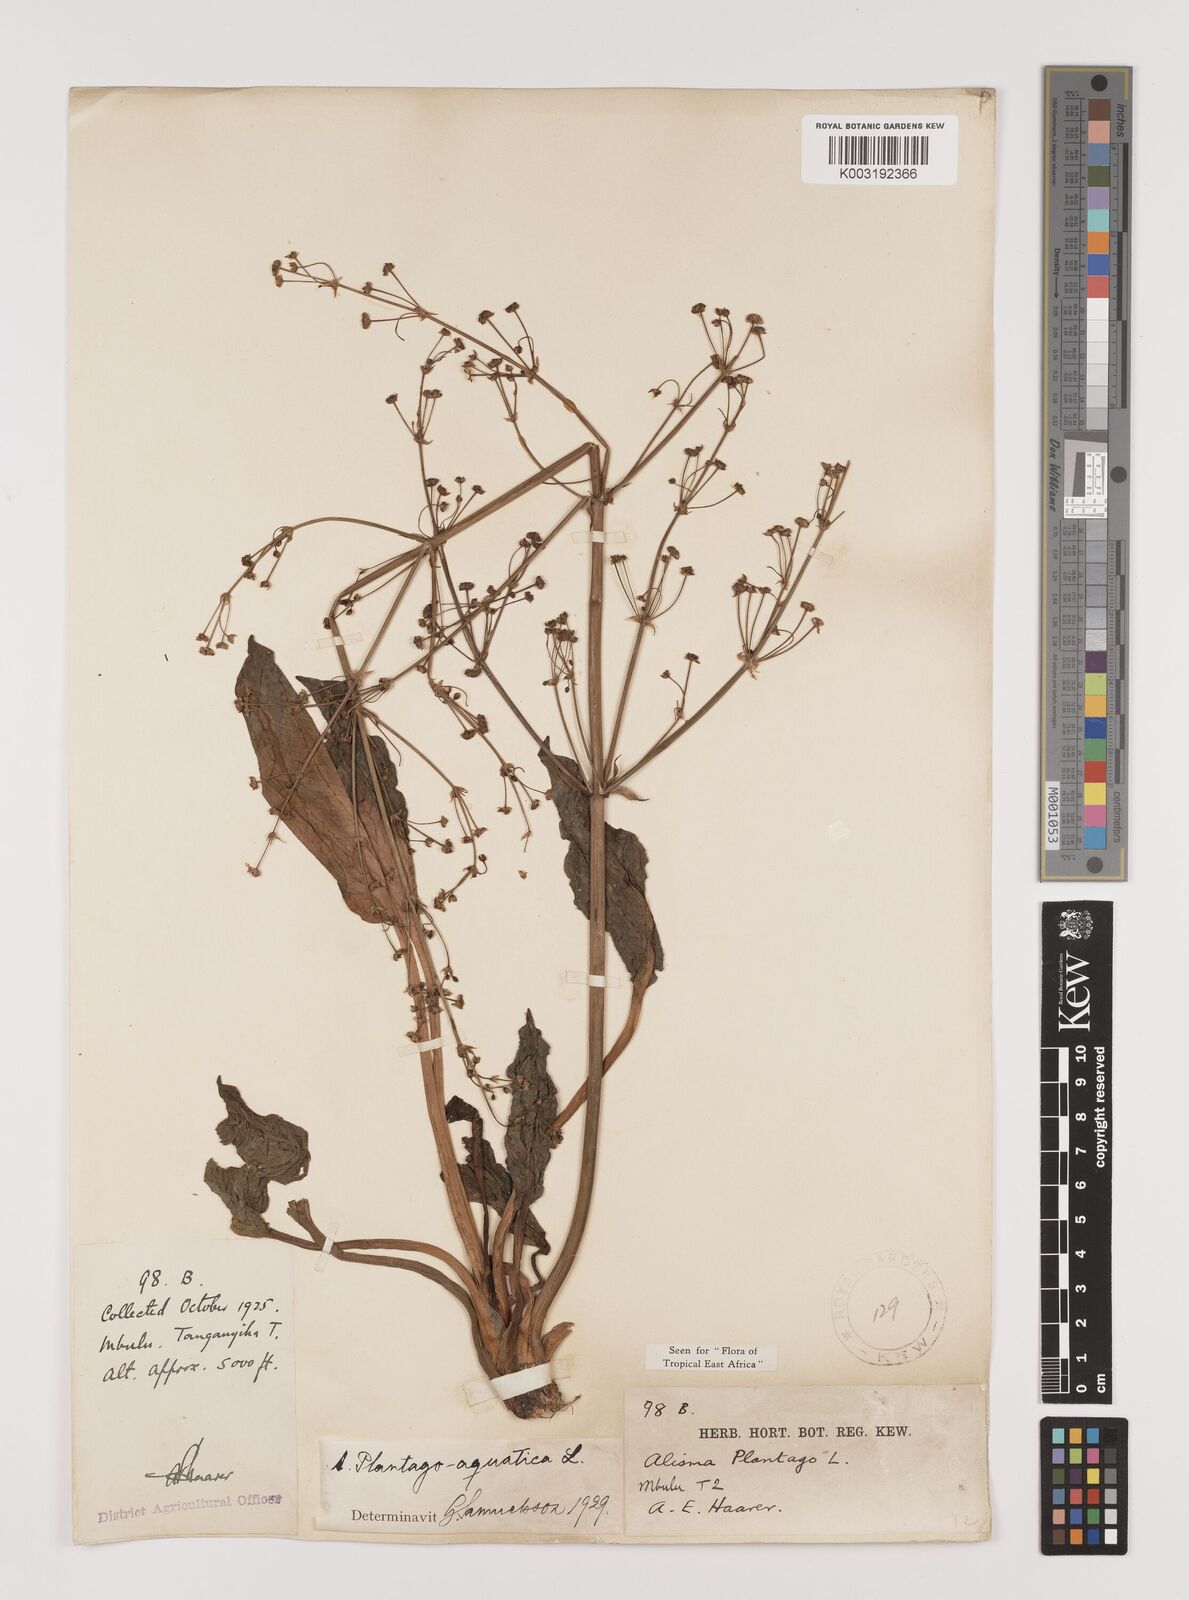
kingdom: Plantae
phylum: Tracheophyta
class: Liliopsida
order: Alismatales
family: Alismataceae
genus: Alisma
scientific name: Alisma plantago-aquatica
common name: Water-plantain
